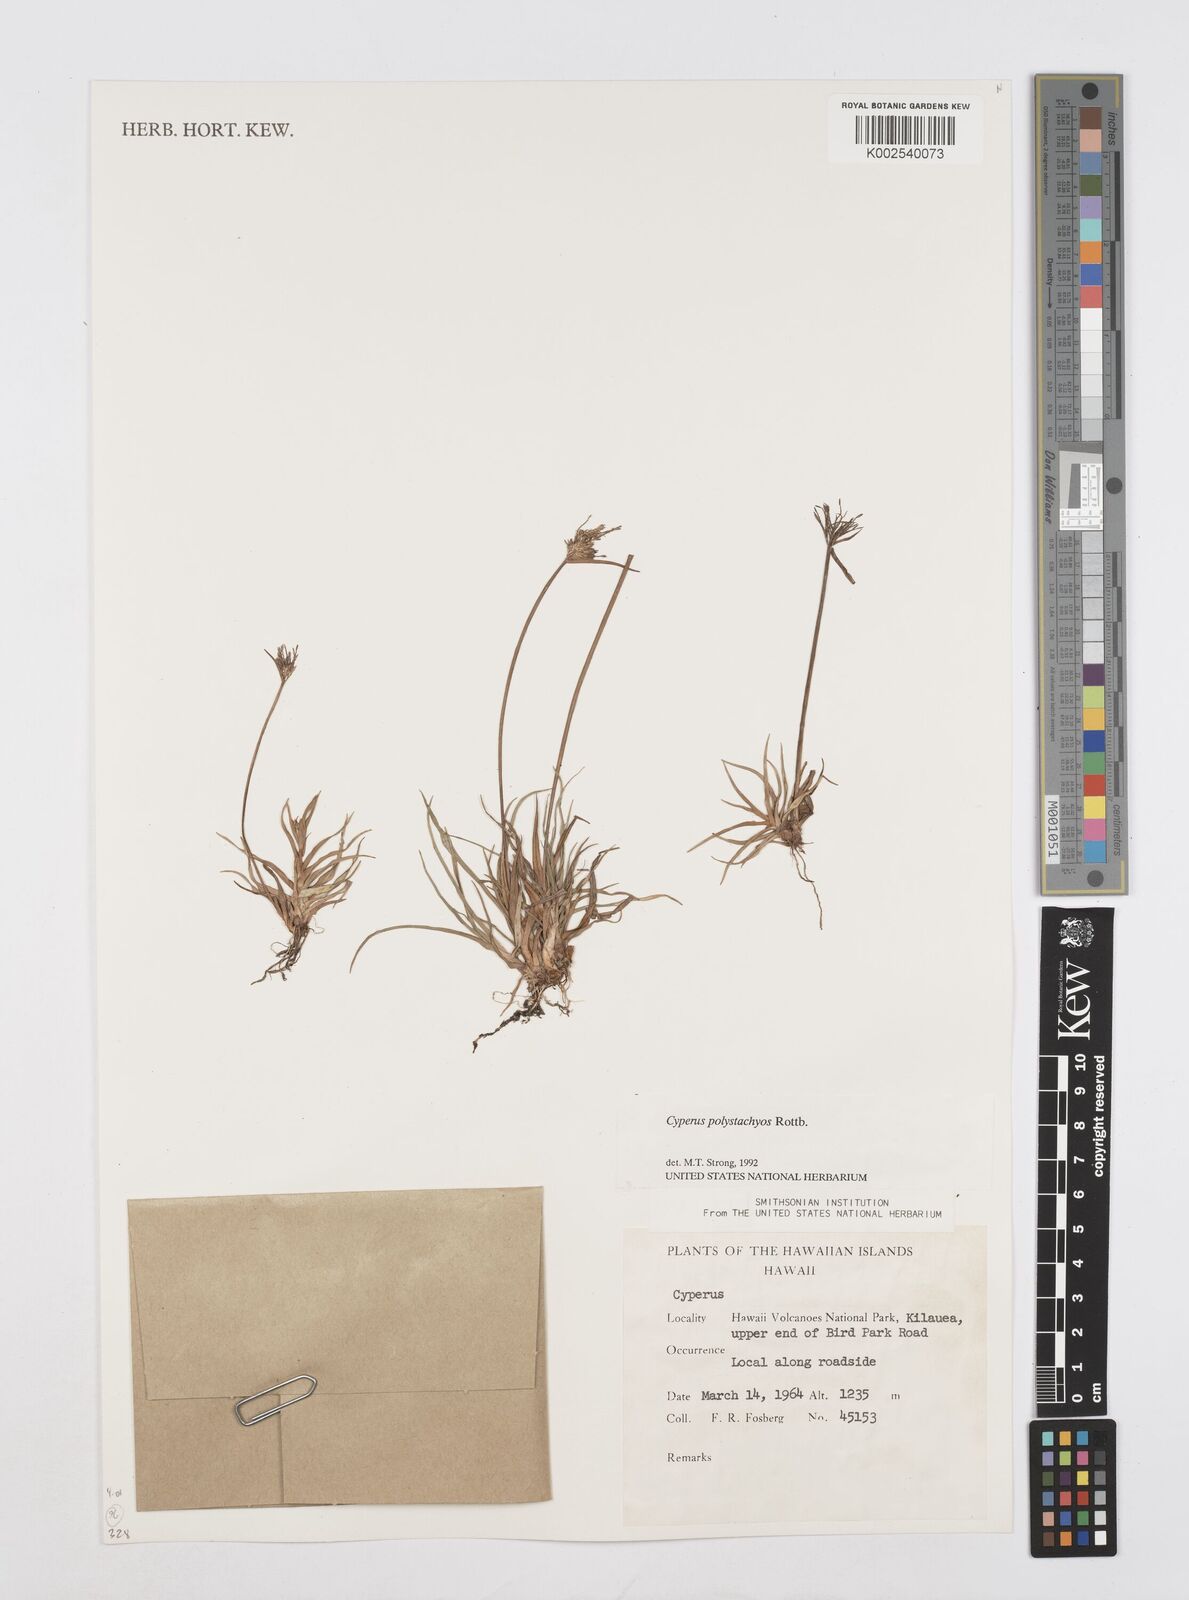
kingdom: Plantae
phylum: Tracheophyta
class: Liliopsida
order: Poales
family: Cyperaceae
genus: Cyperus
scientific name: Cyperus polystachyos
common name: Bunchy flat sedge
